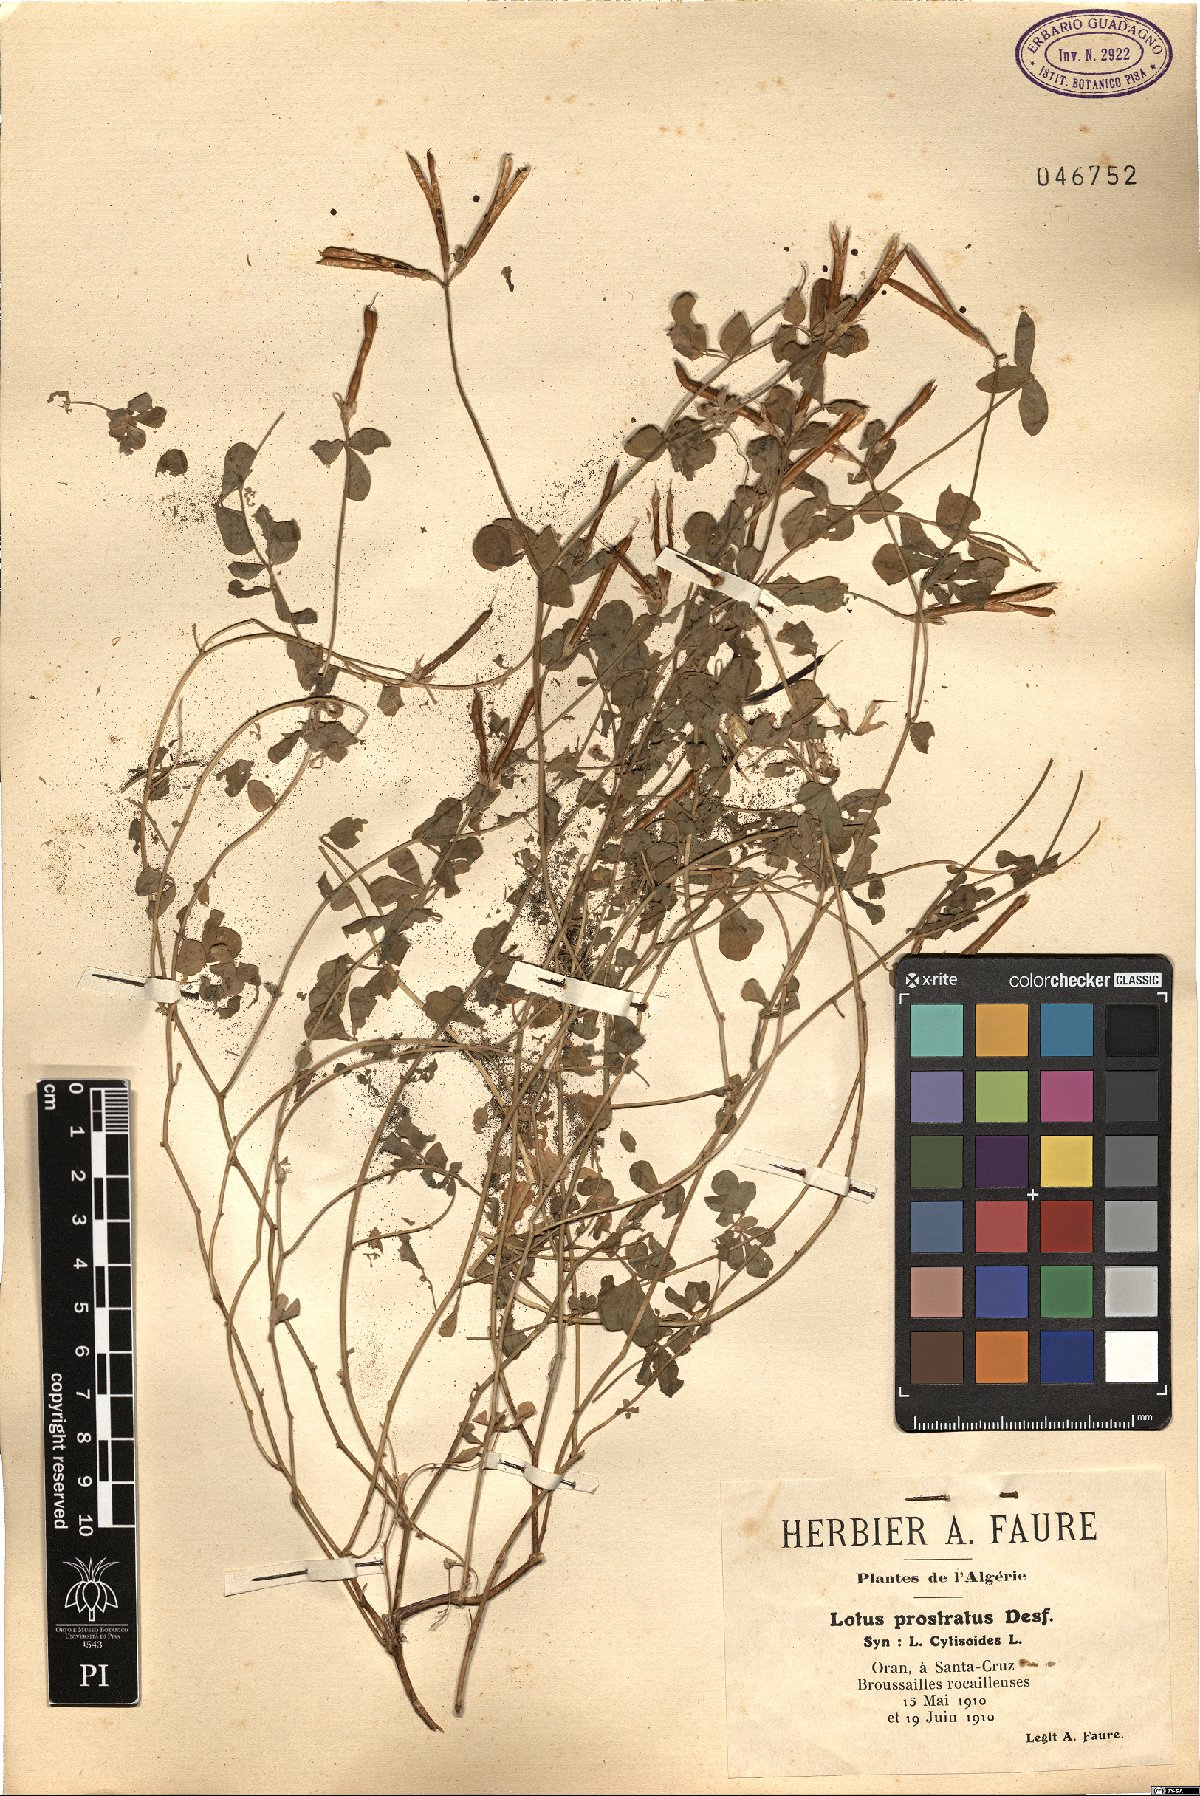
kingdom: Plantae
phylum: Tracheophyta
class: Magnoliopsida
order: Fabales
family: Fabaceae
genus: Lotus
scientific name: Lotus cytisoides
